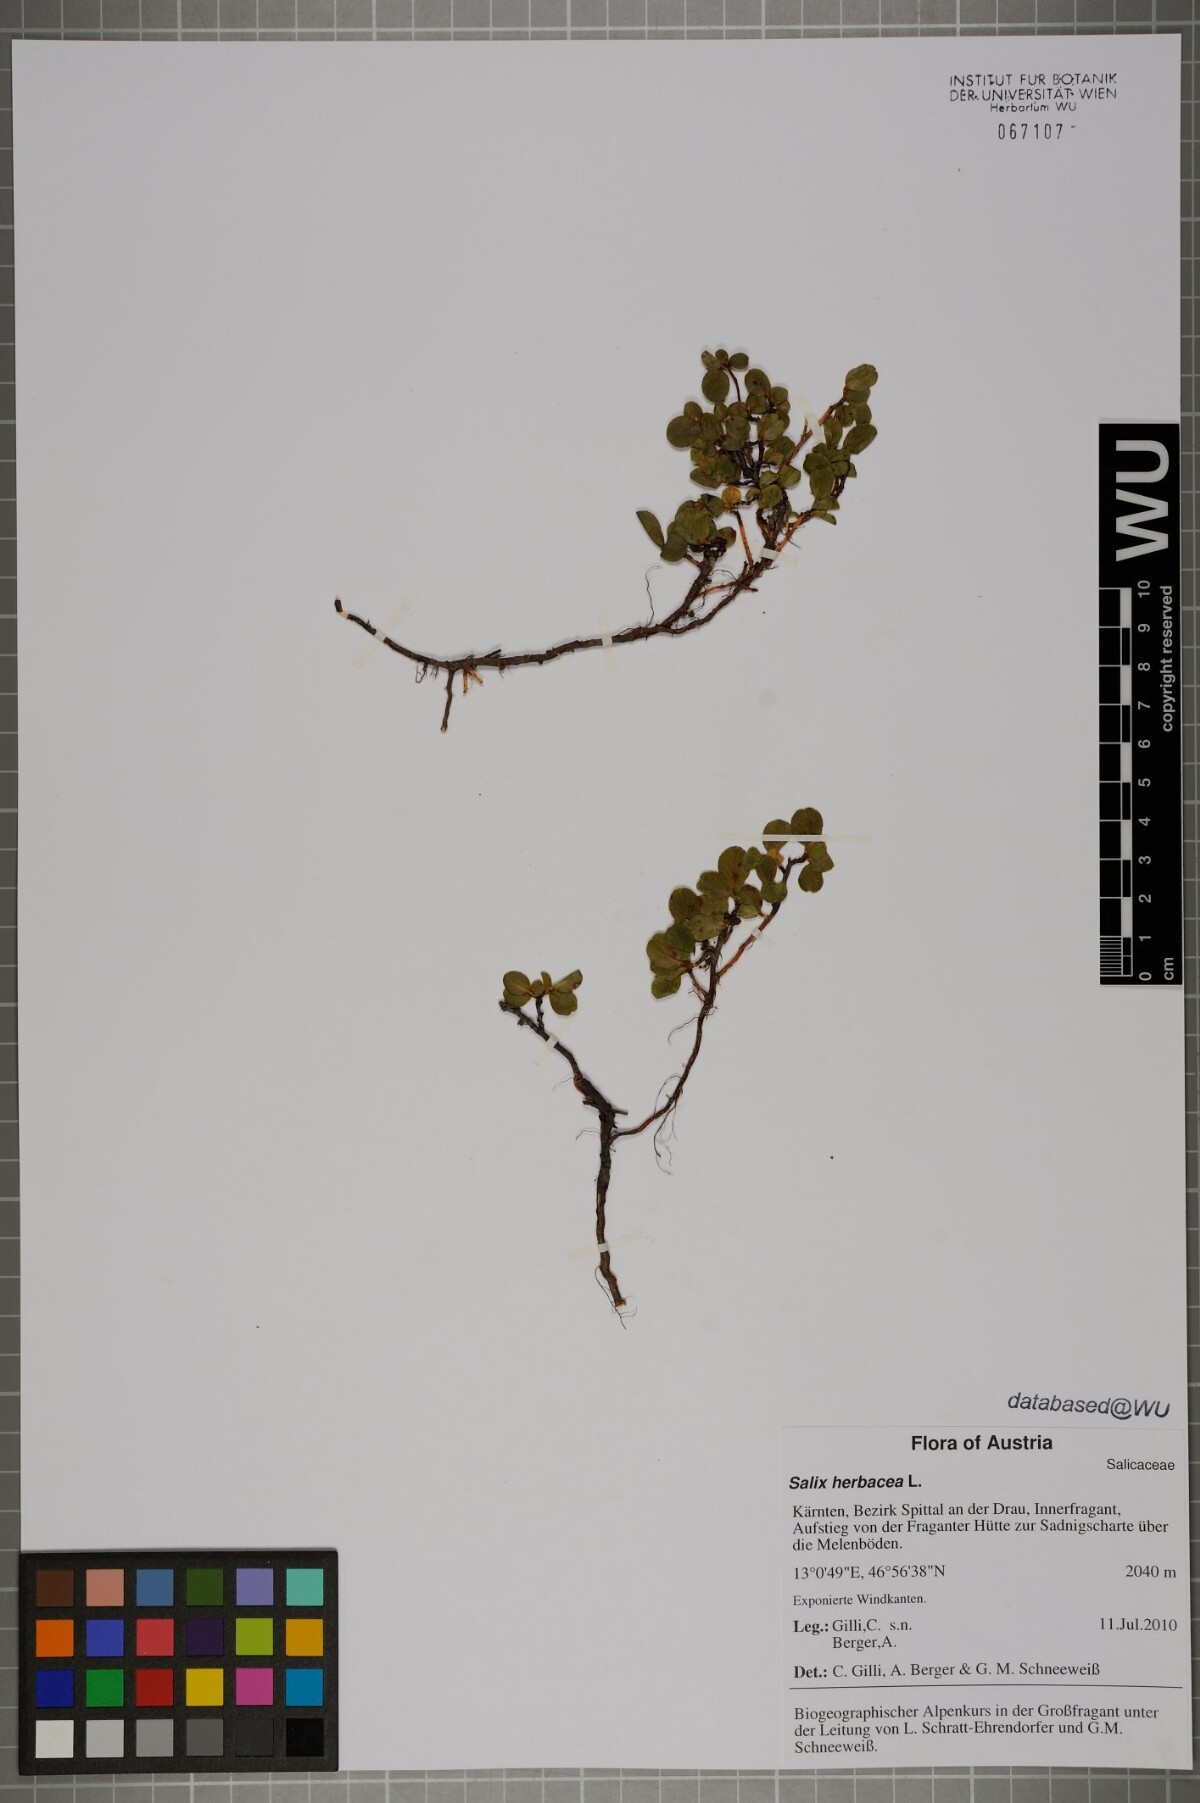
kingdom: Plantae
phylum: Tracheophyta
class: Magnoliopsida
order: Malpighiales
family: Salicaceae
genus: Salix
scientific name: Salix herbacea
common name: Dwarf willow
